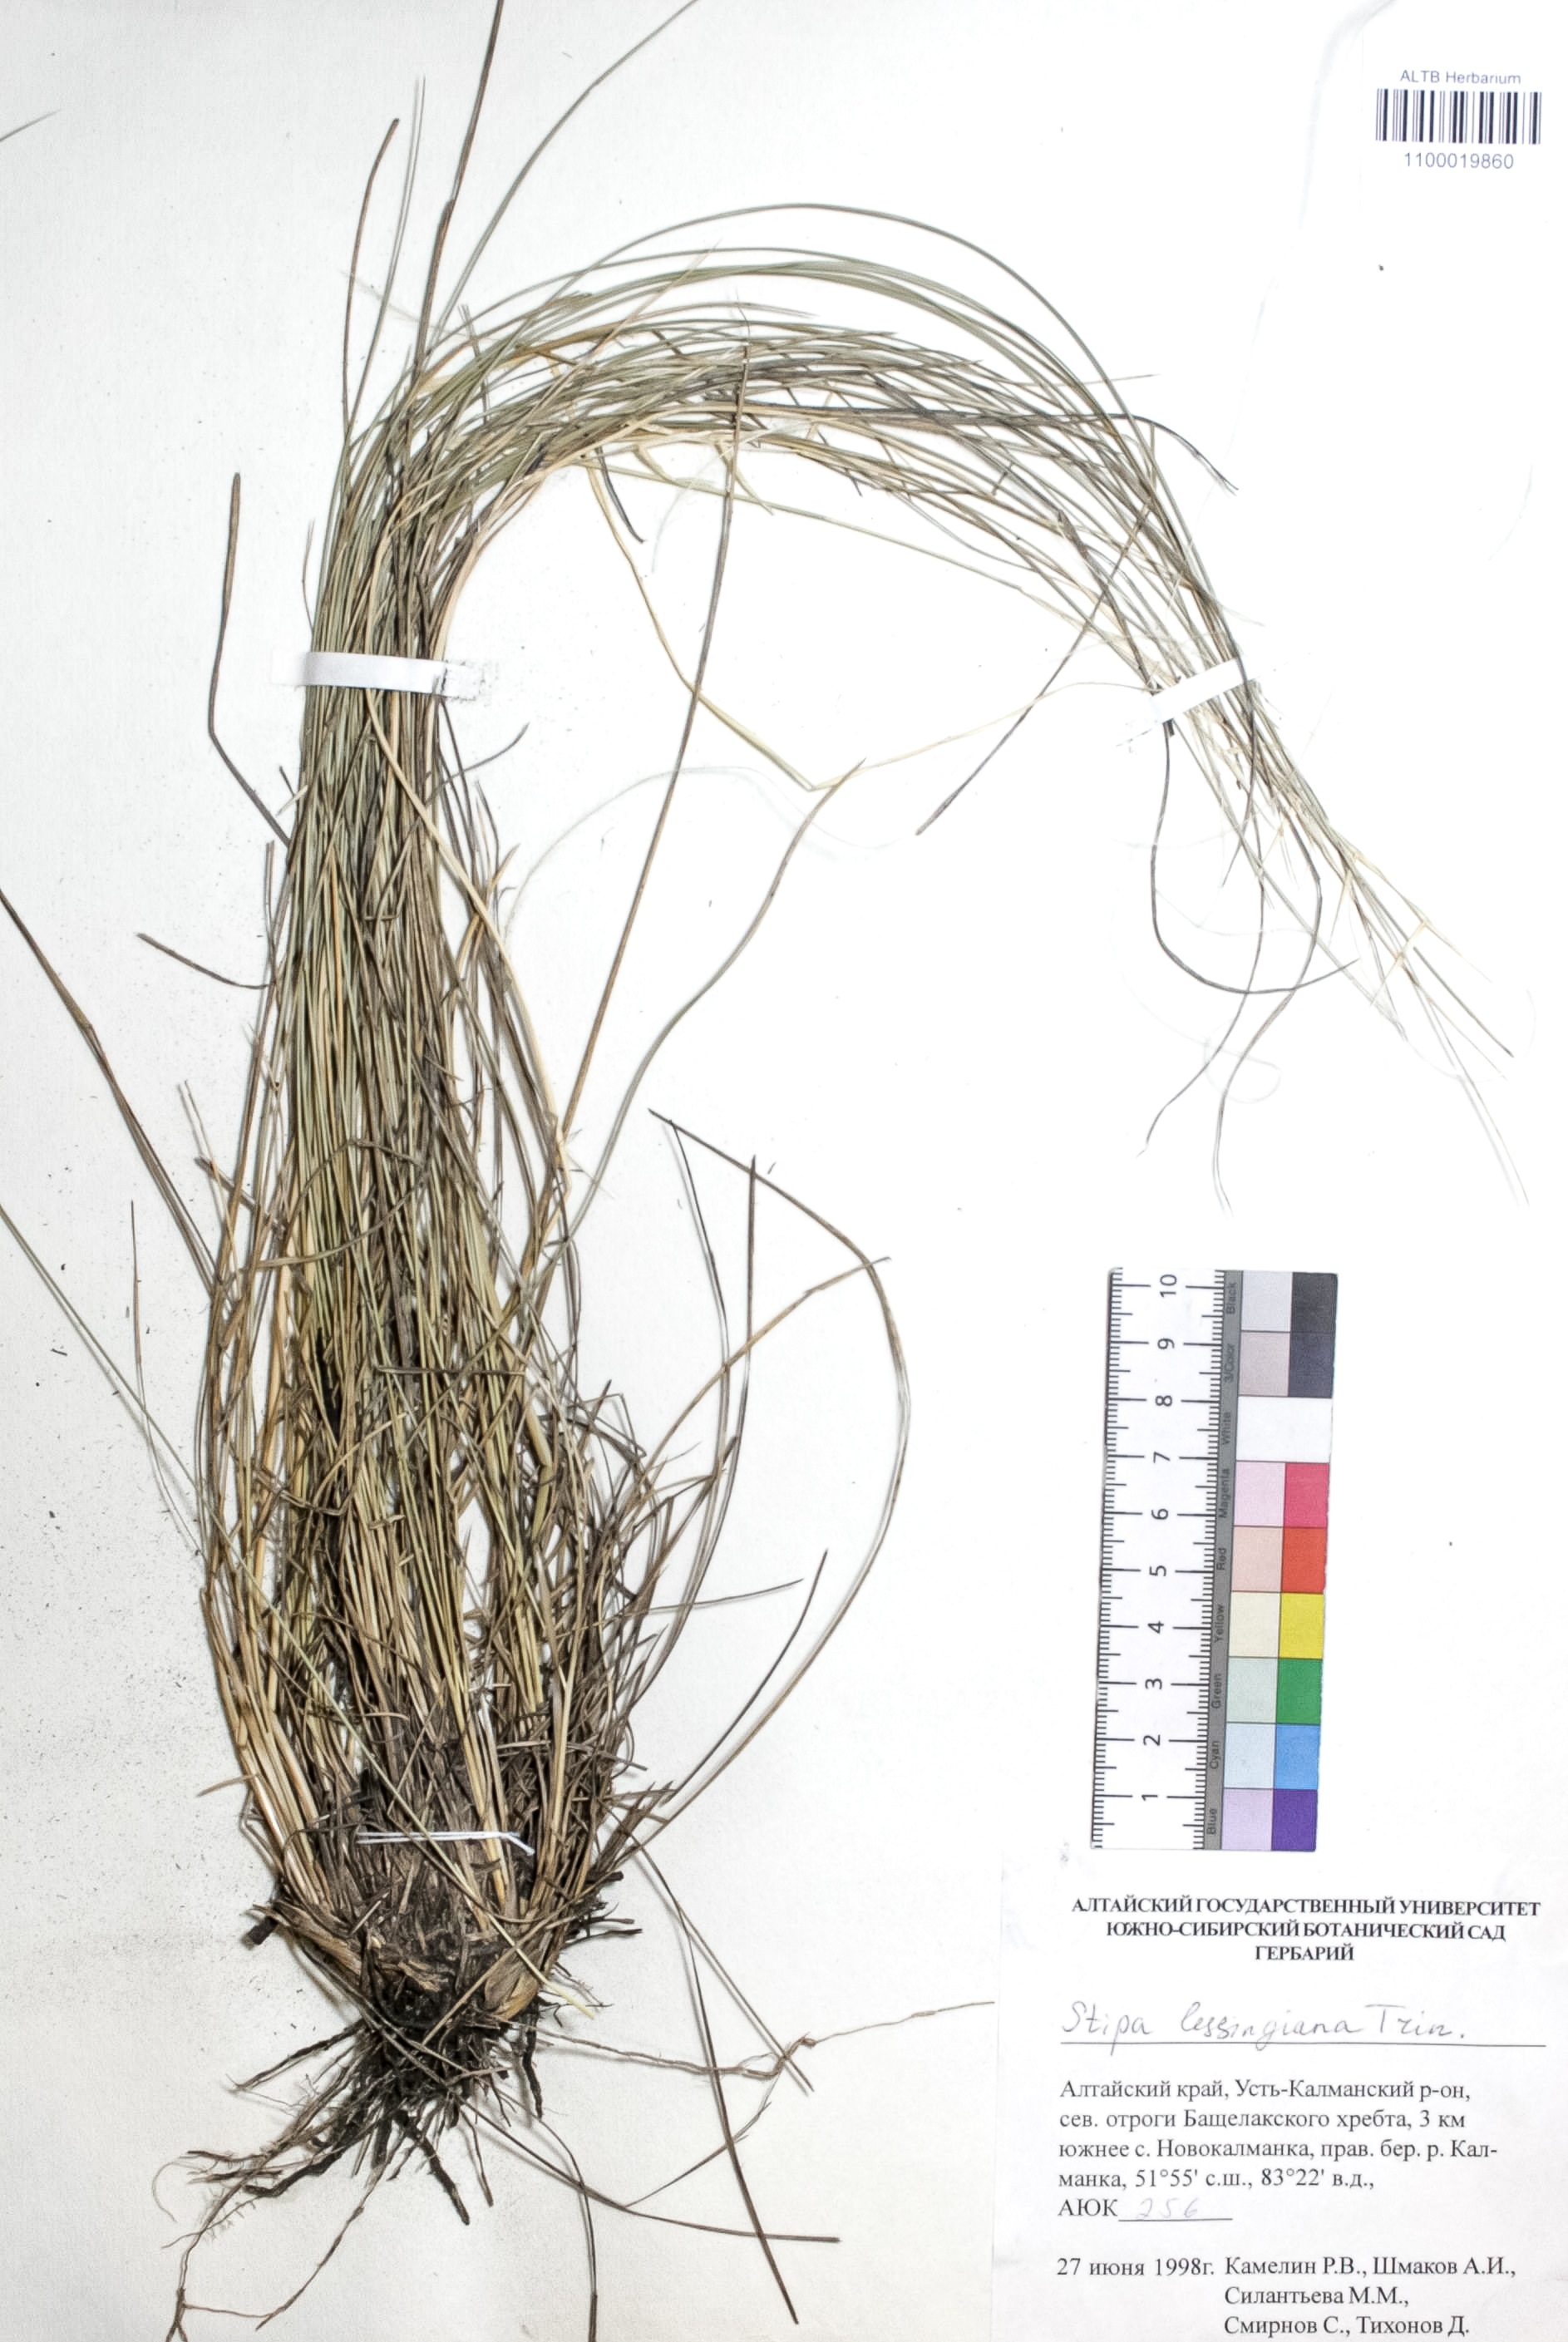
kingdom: Plantae
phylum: Tracheophyta
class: Liliopsida
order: Poales
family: Poaceae
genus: Stipa
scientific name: Stipa lessingiana
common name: Needle grass
